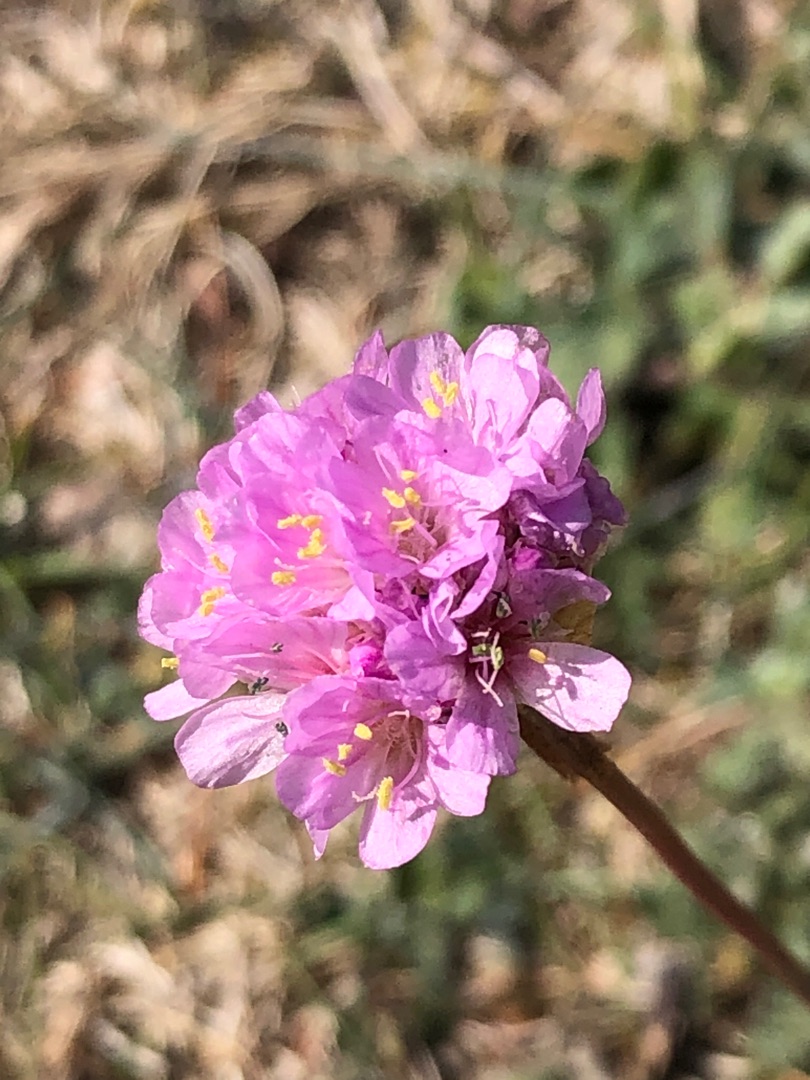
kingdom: Plantae
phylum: Tracheophyta
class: Magnoliopsida
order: Caryophyllales
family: Plumbaginaceae
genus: Armeria
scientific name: Armeria maritima
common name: Engelskgræs
